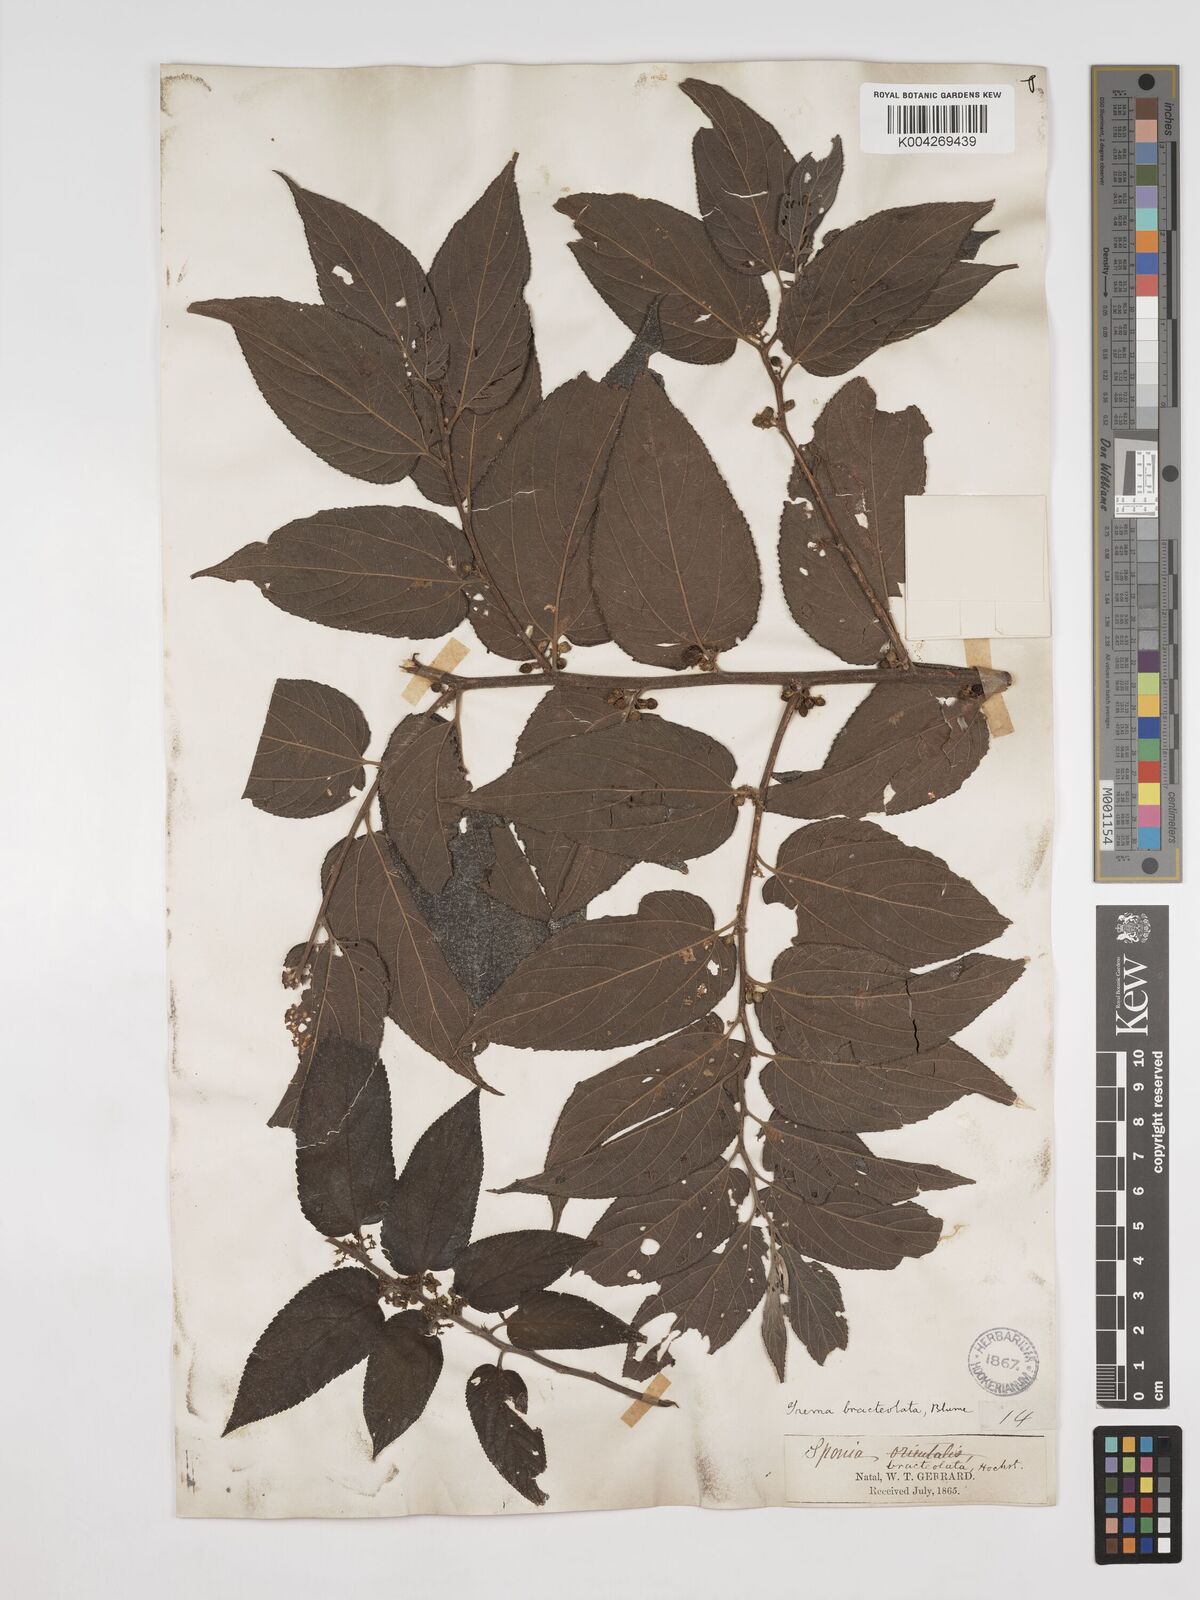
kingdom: Plantae
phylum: Tracheophyta
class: Magnoliopsida
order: Rosales
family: Cannabaceae
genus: Trema
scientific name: Trema orientale
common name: Indian charcoal tree
